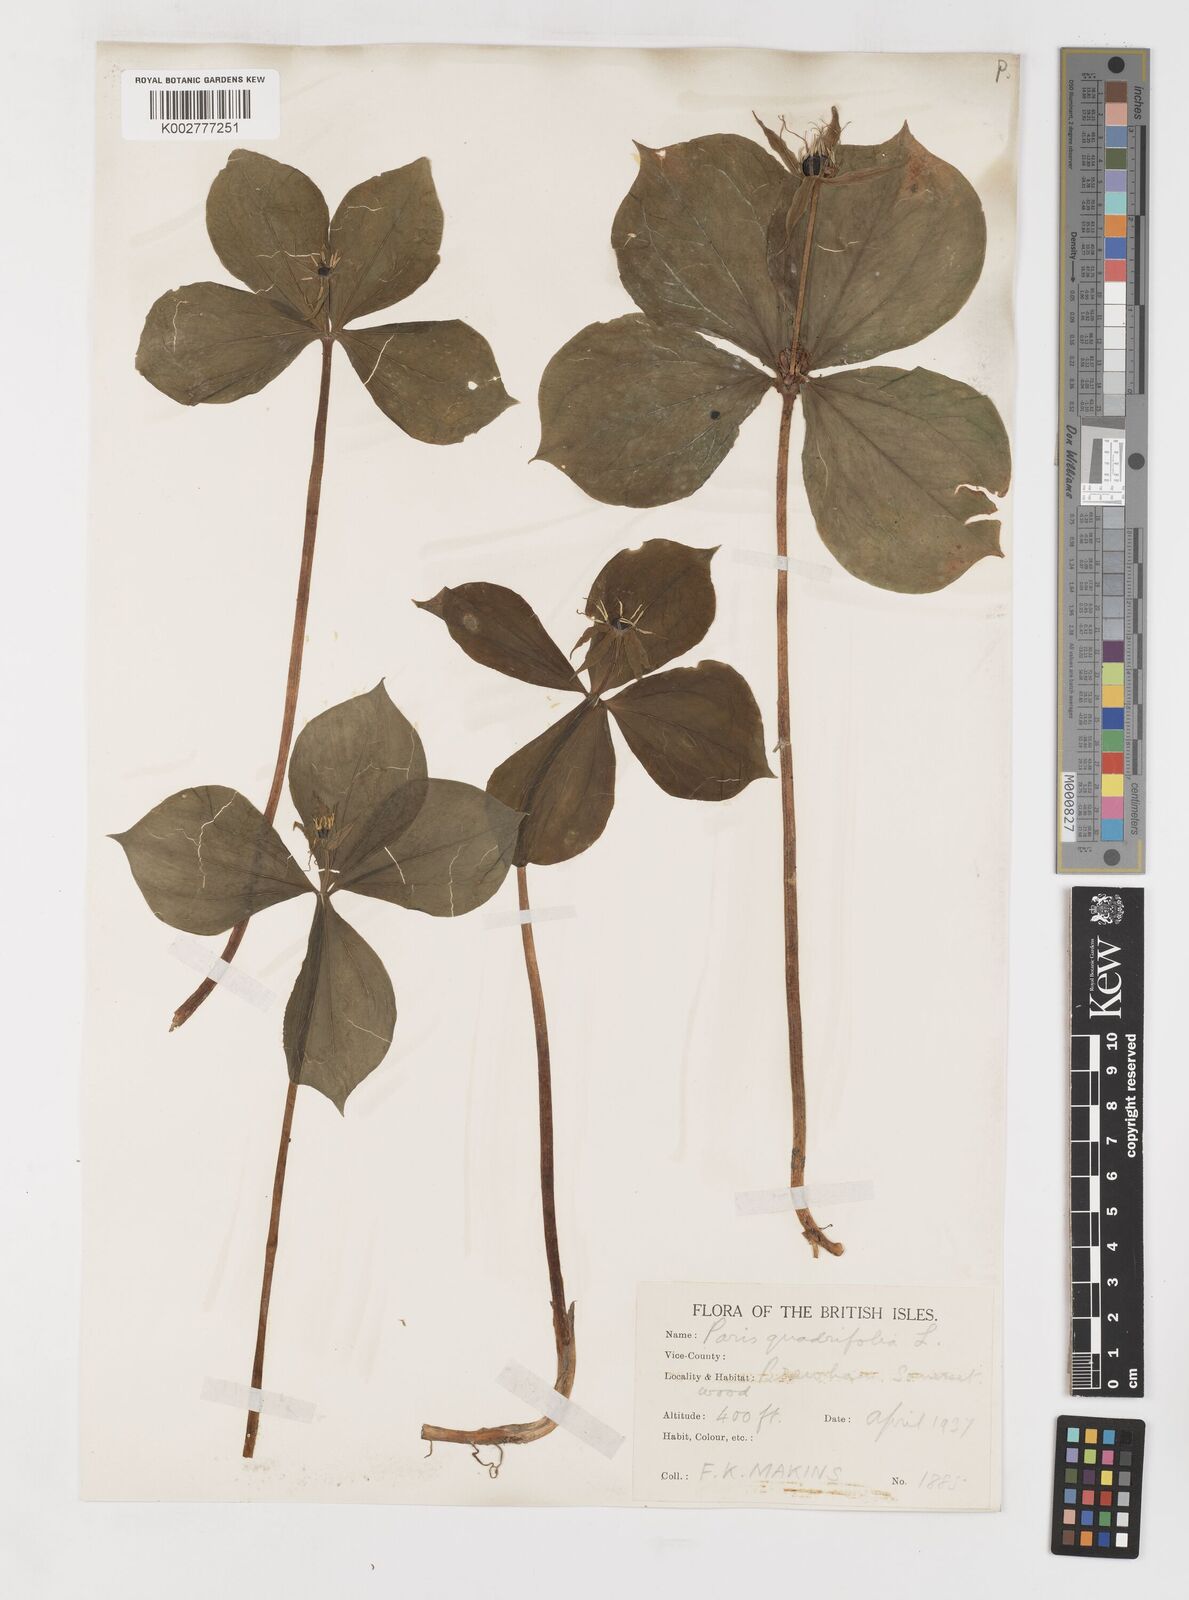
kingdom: Plantae
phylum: Tracheophyta
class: Liliopsida
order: Liliales
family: Melanthiaceae
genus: Paris
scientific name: Paris
